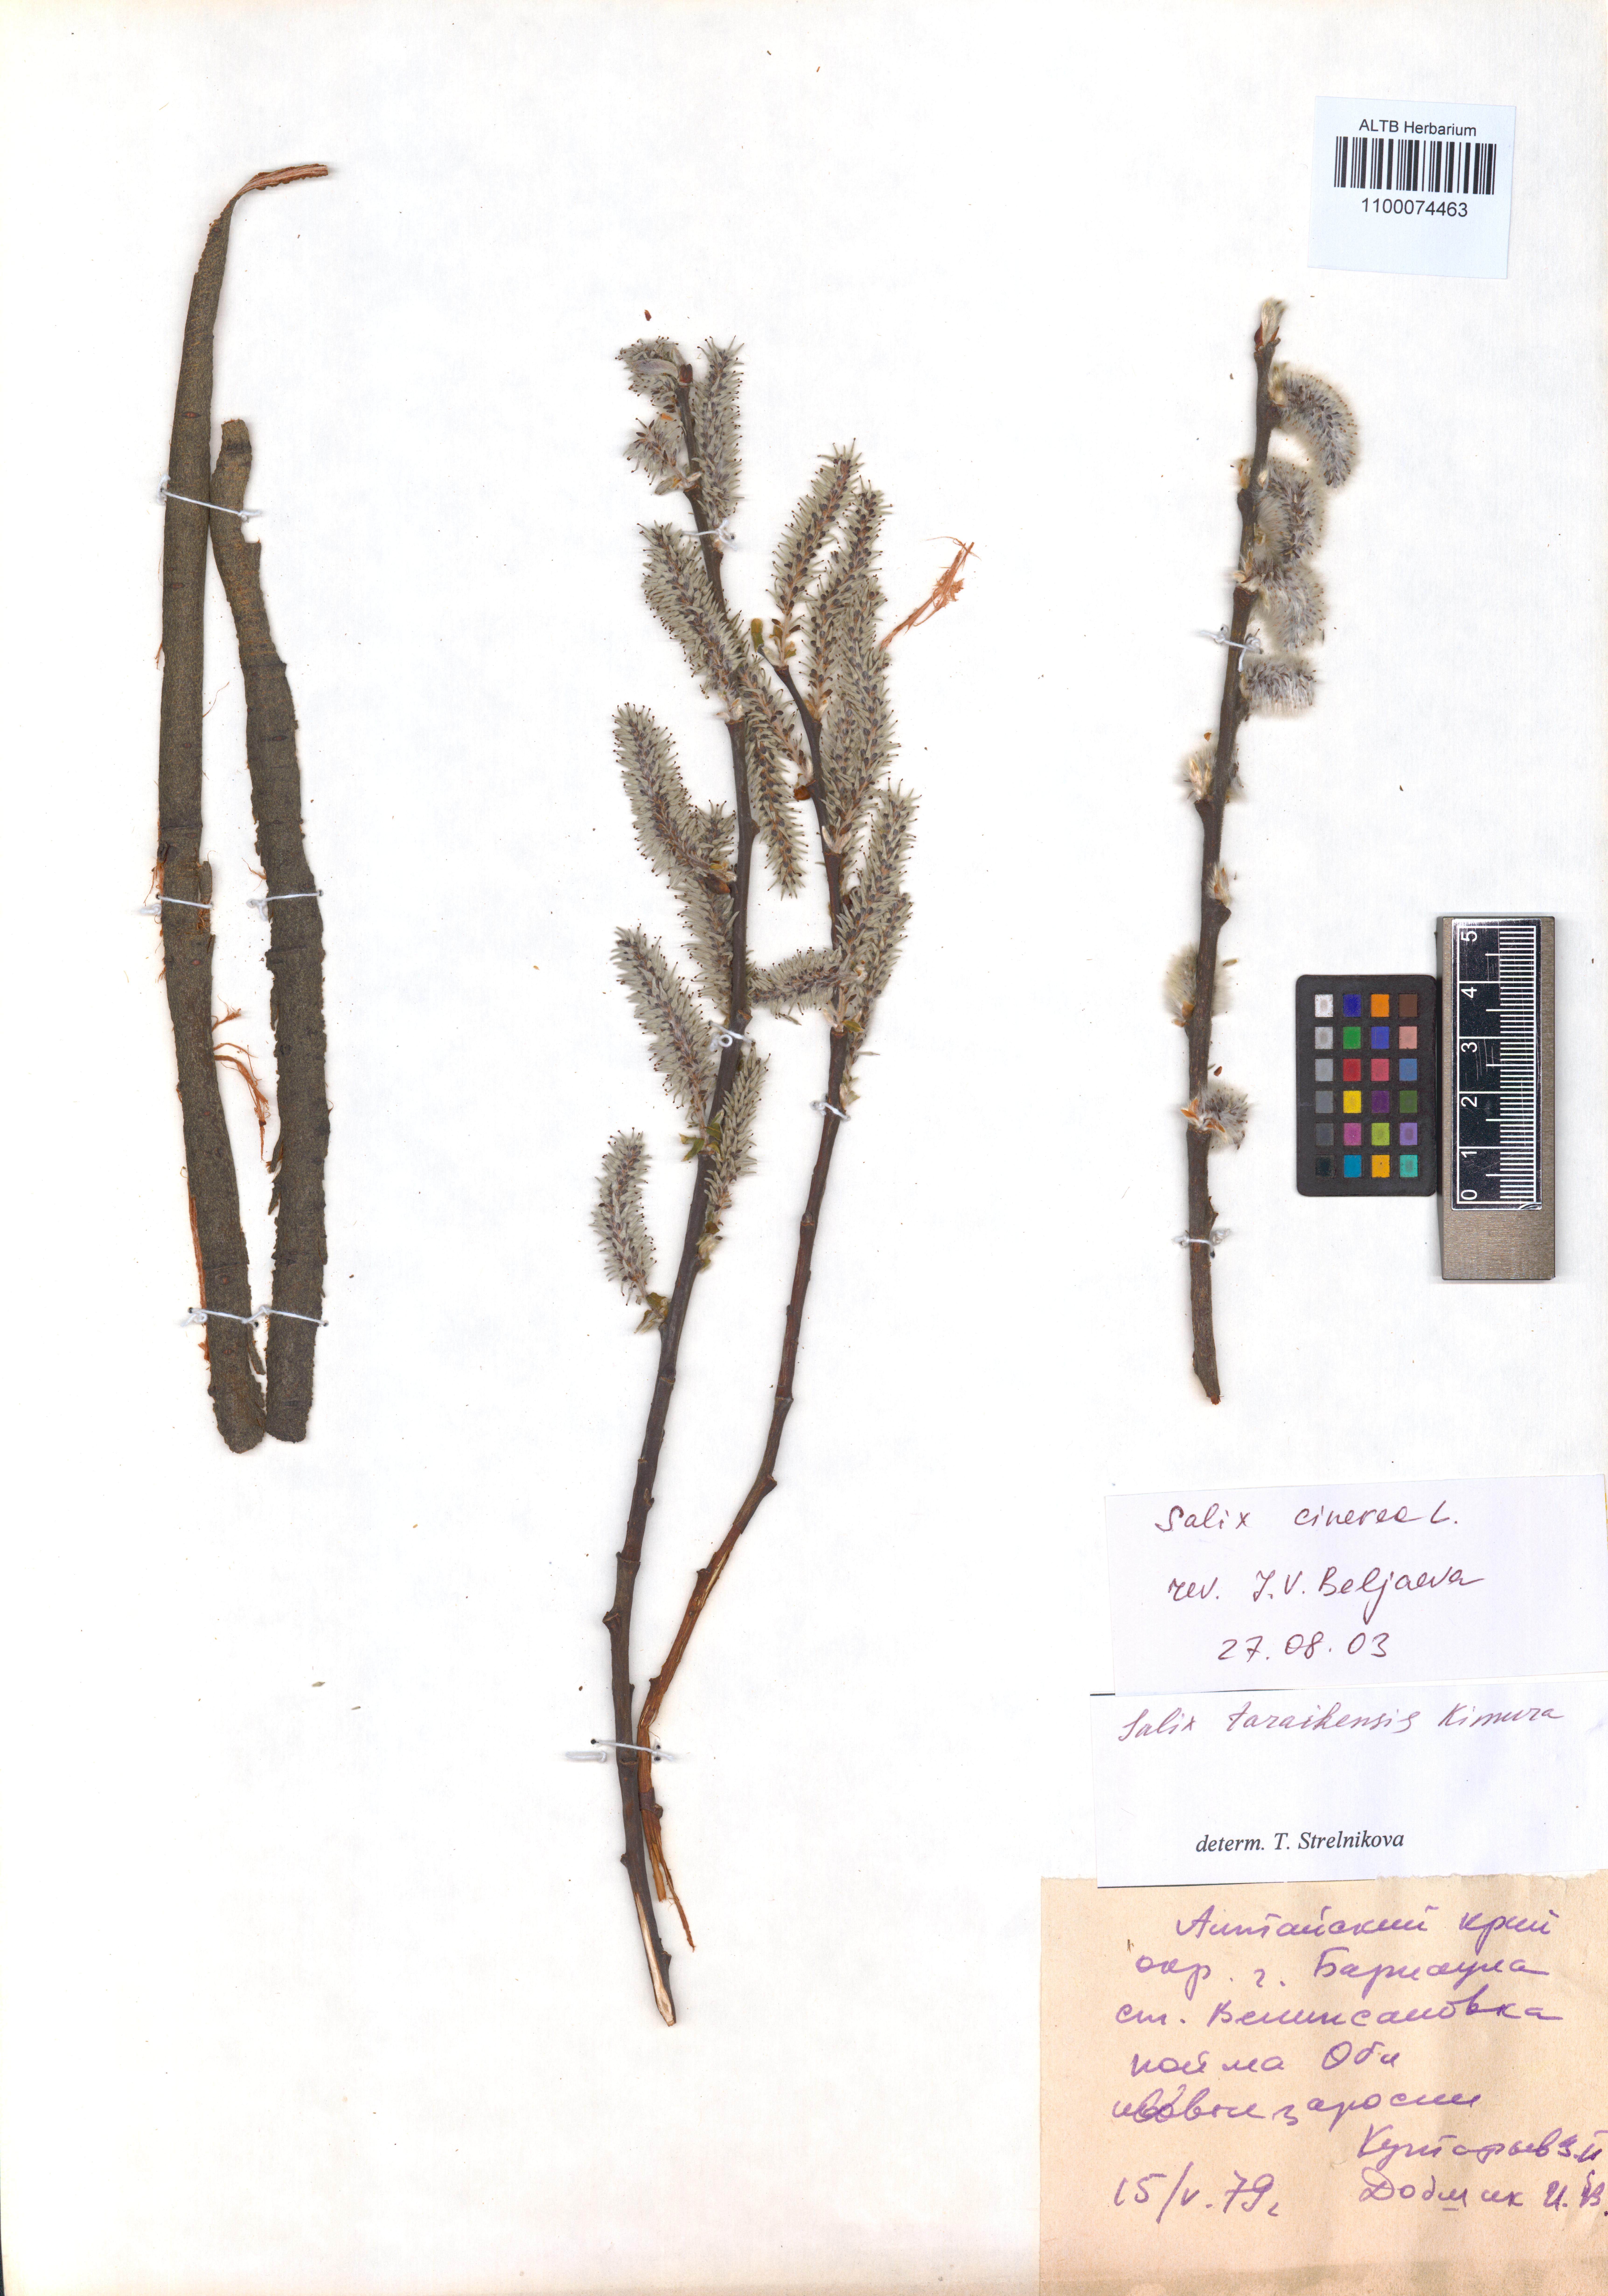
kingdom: Plantae
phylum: Tracheophyta
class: Magnoliopsida
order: Malpighiales
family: Salicaceae
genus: Salix
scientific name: Salix cinerea
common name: Common sallow
